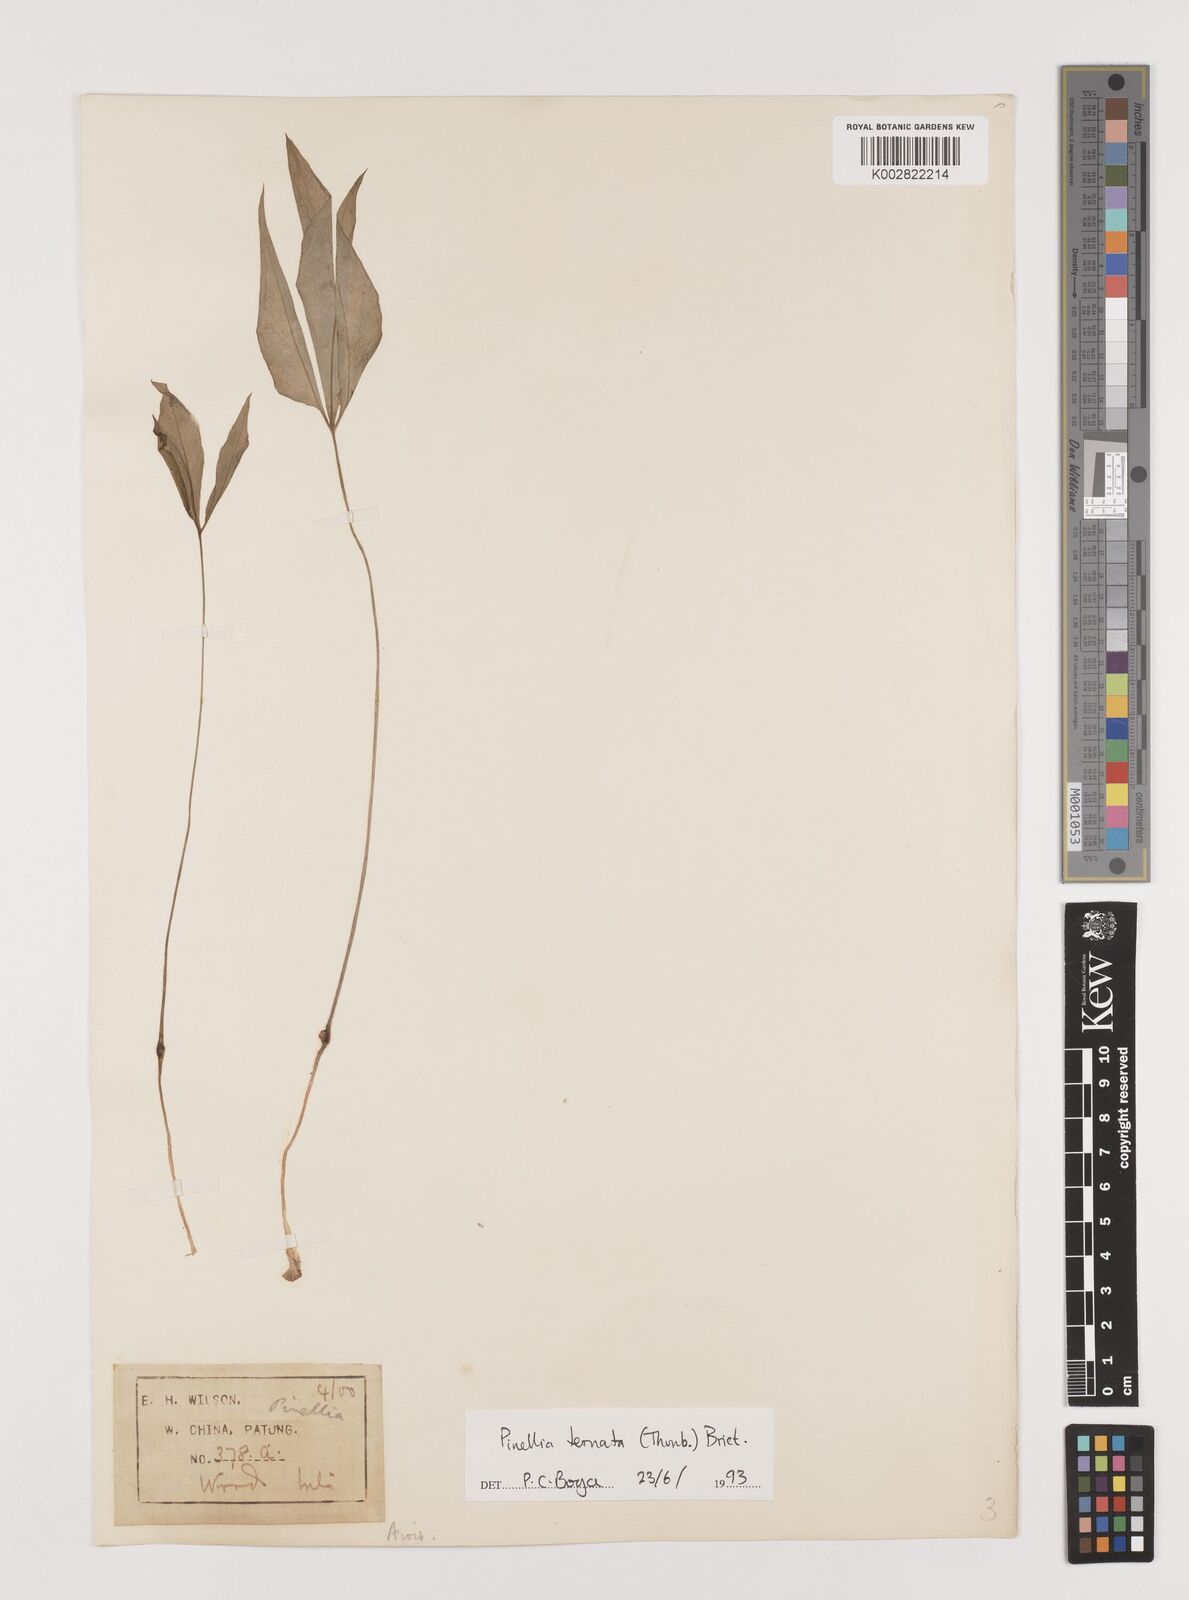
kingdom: Plantae
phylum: Tracheophyta
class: Liliopsida
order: Alismatales
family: Araceae
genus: Pinellia
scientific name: Pinellia ternata
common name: Pinellia
